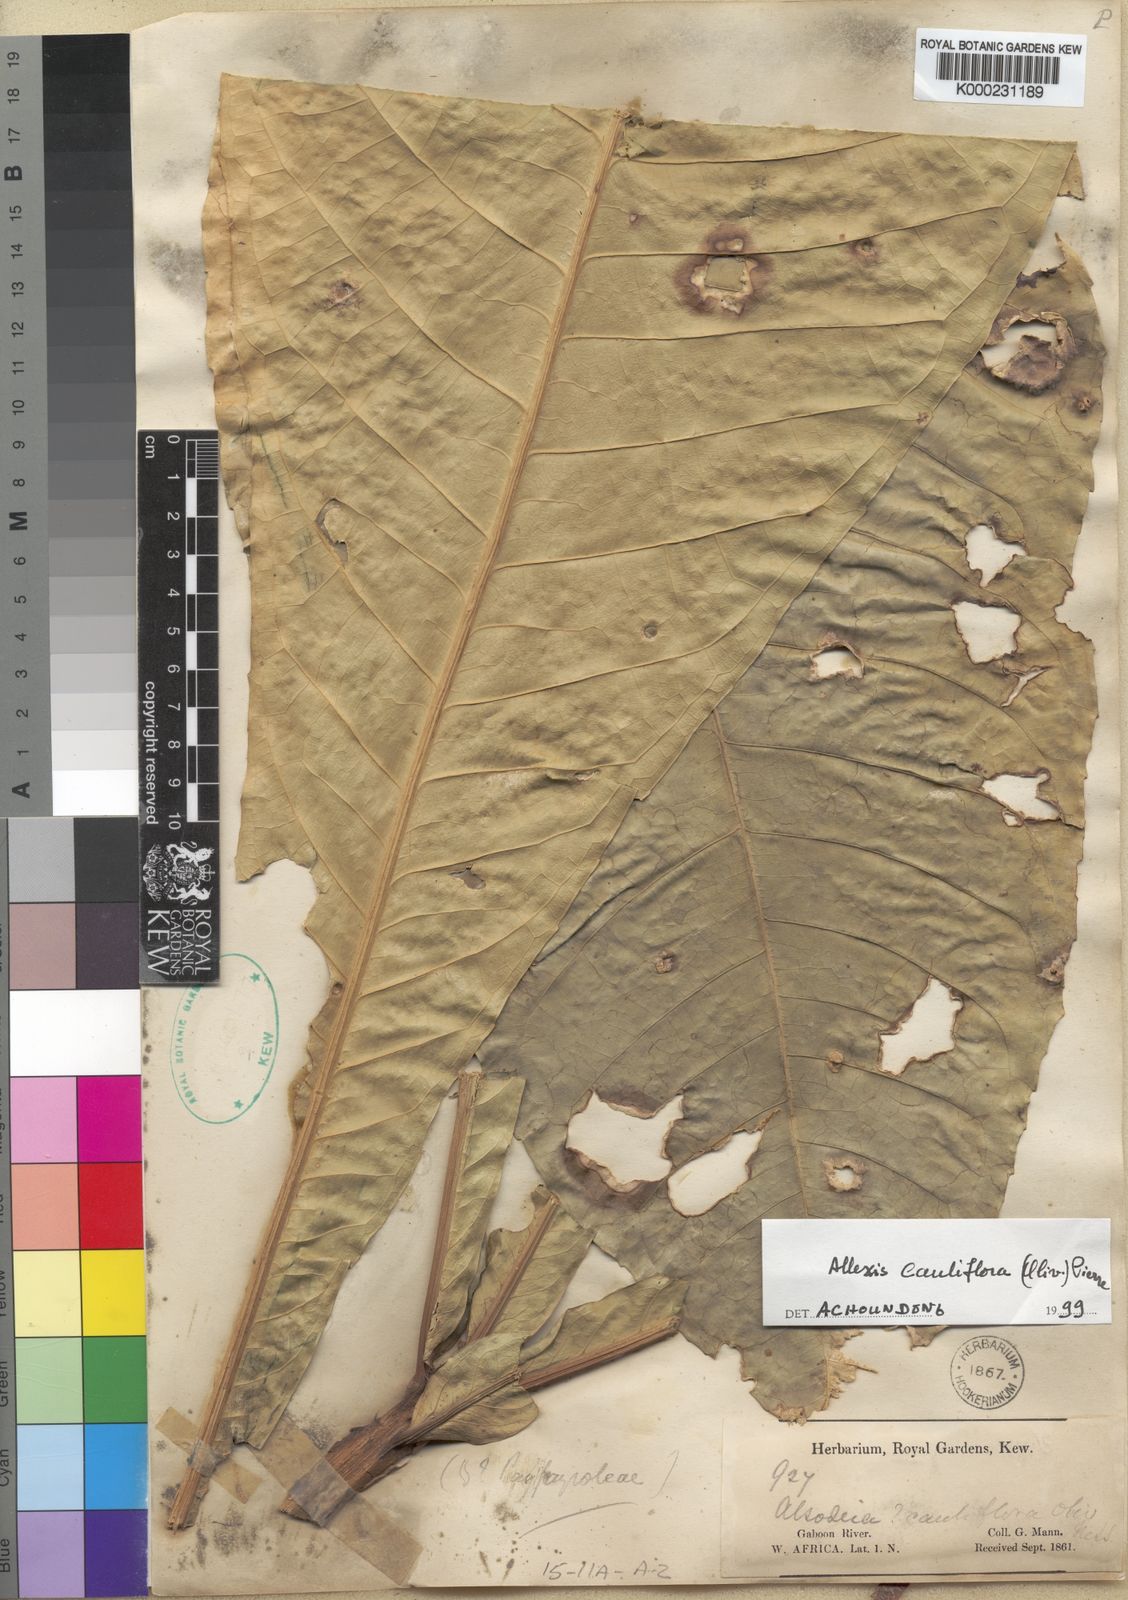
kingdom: Plantae
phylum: Tracheophyta
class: Magnoliopsida
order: Malpighiales
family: Violaceae
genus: Allexis
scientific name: Allexis cauliflora
